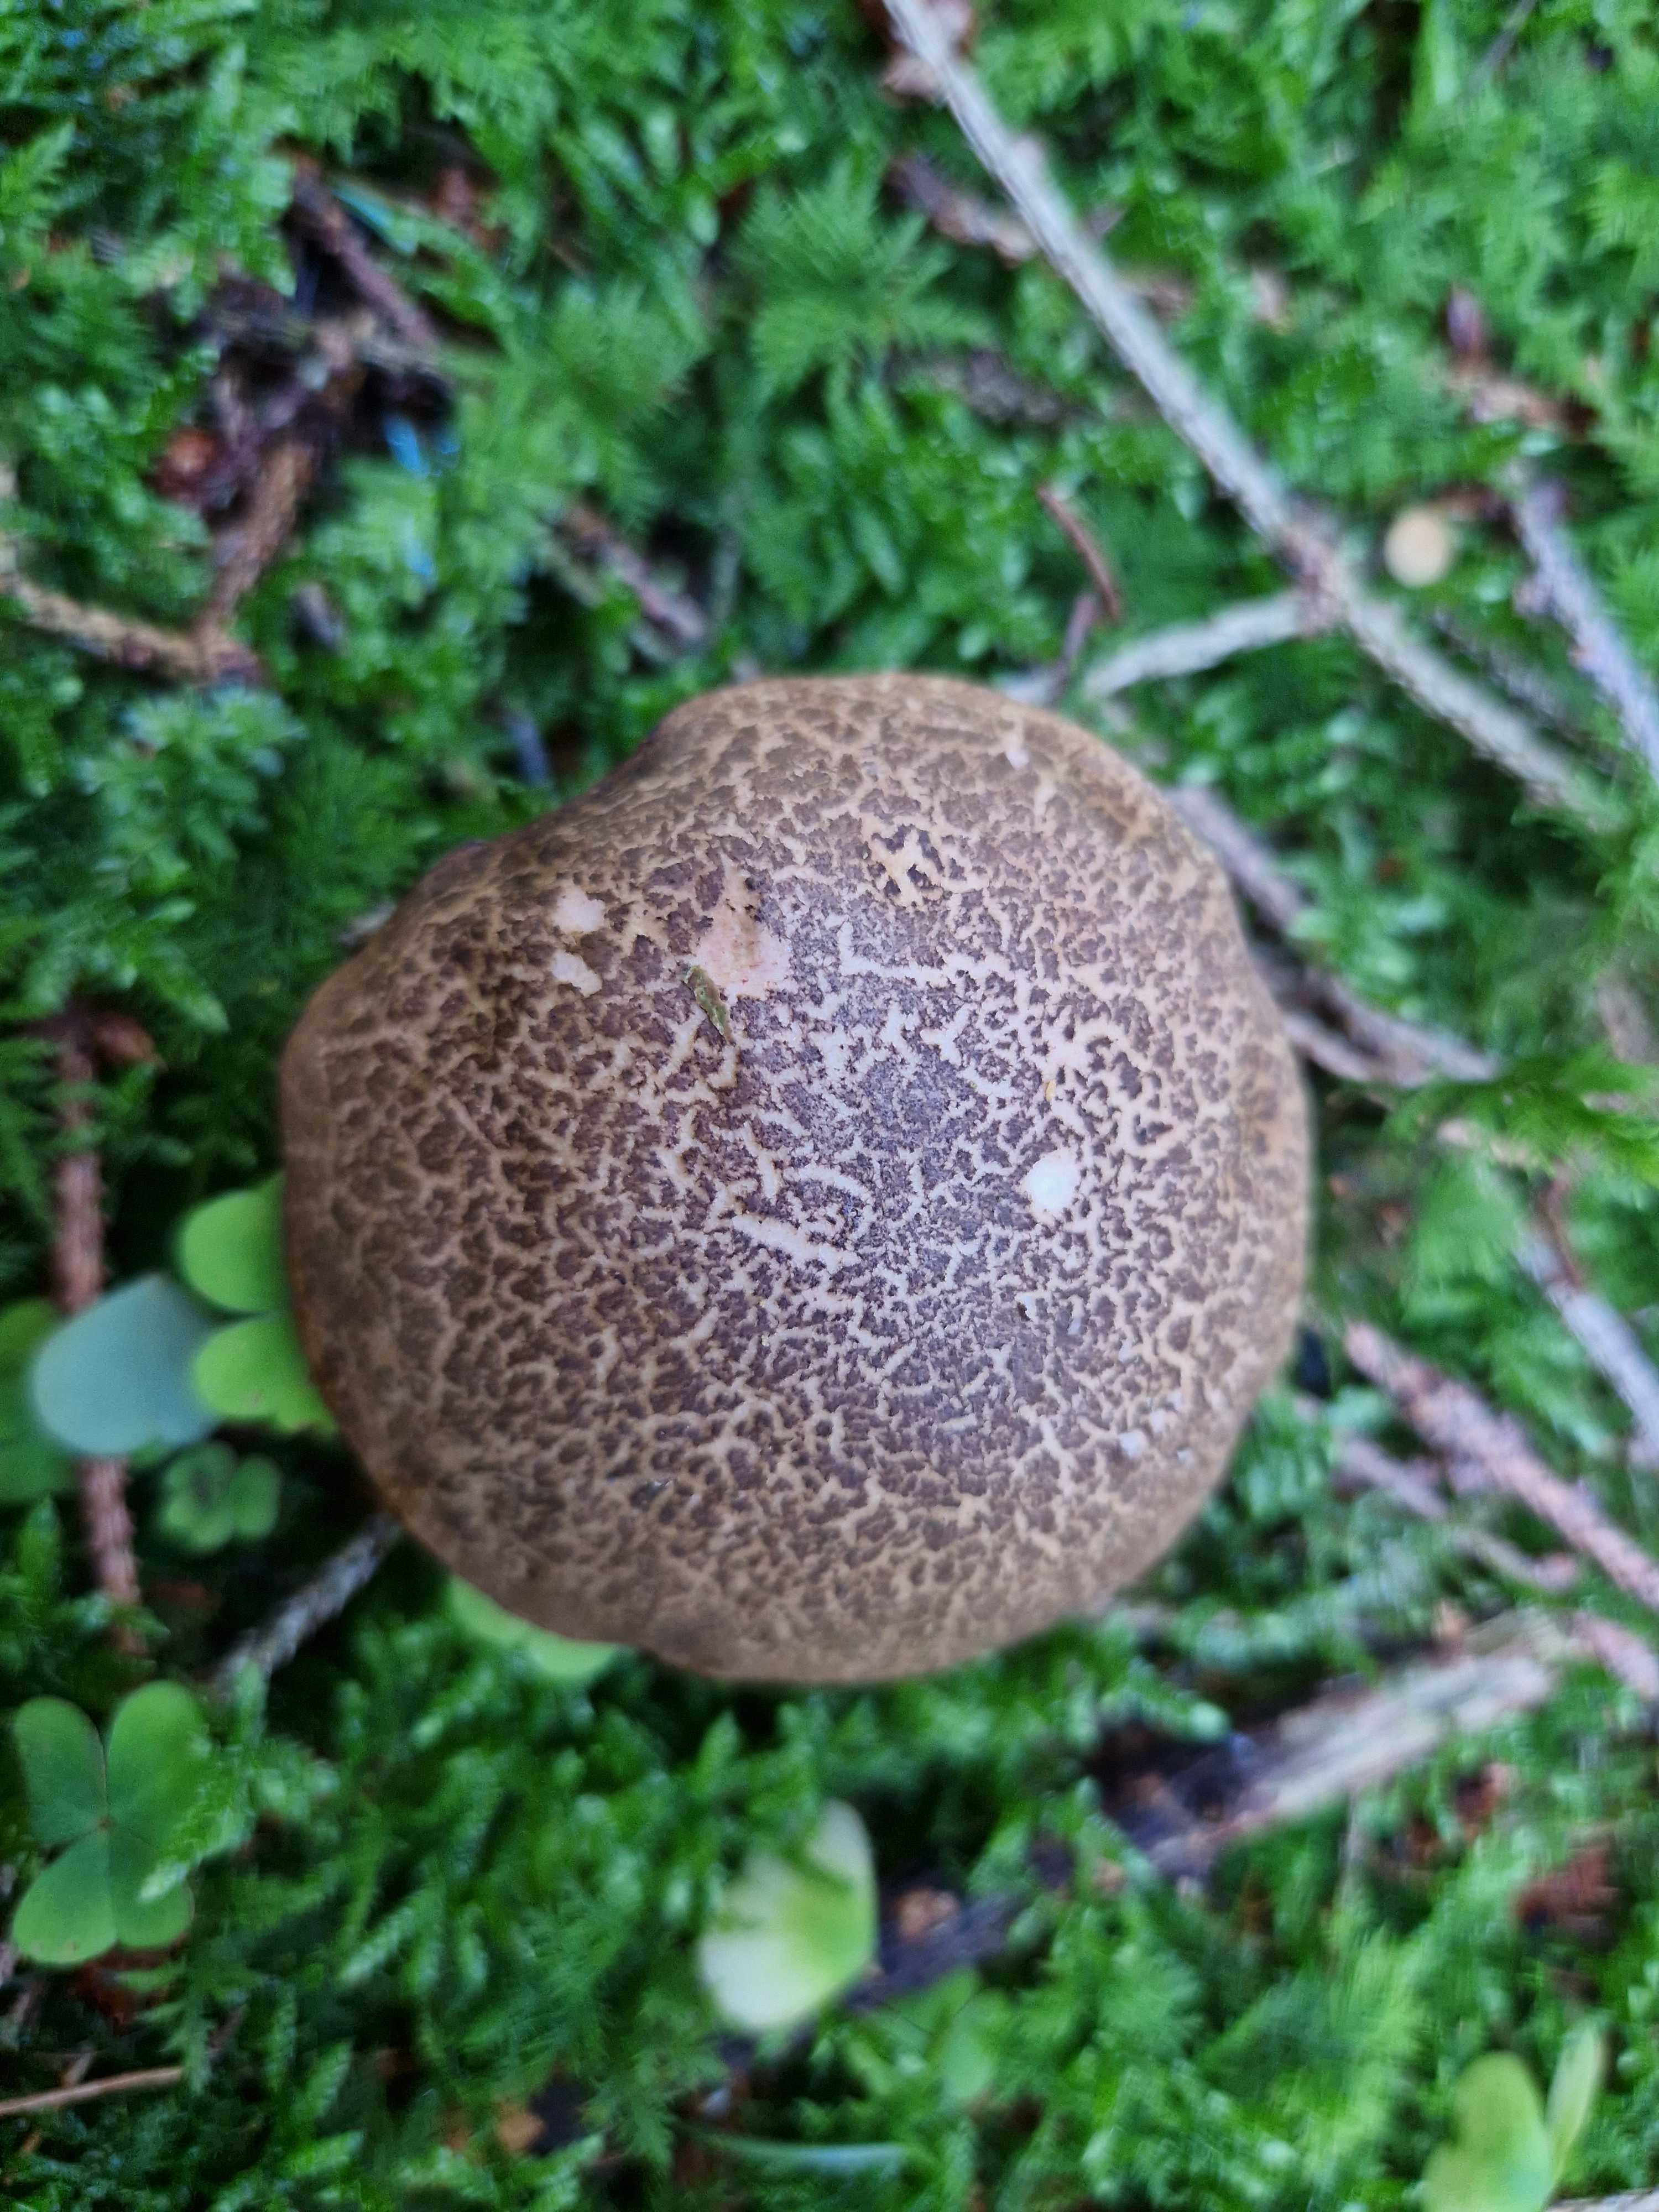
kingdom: Fungi
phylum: Basidiomycota
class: Agaricomycetes
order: Boletales
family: Boletaceae
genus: Xerocomellus
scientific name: Xerocomellus chrysenteron
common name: rødsprukken rørhat
